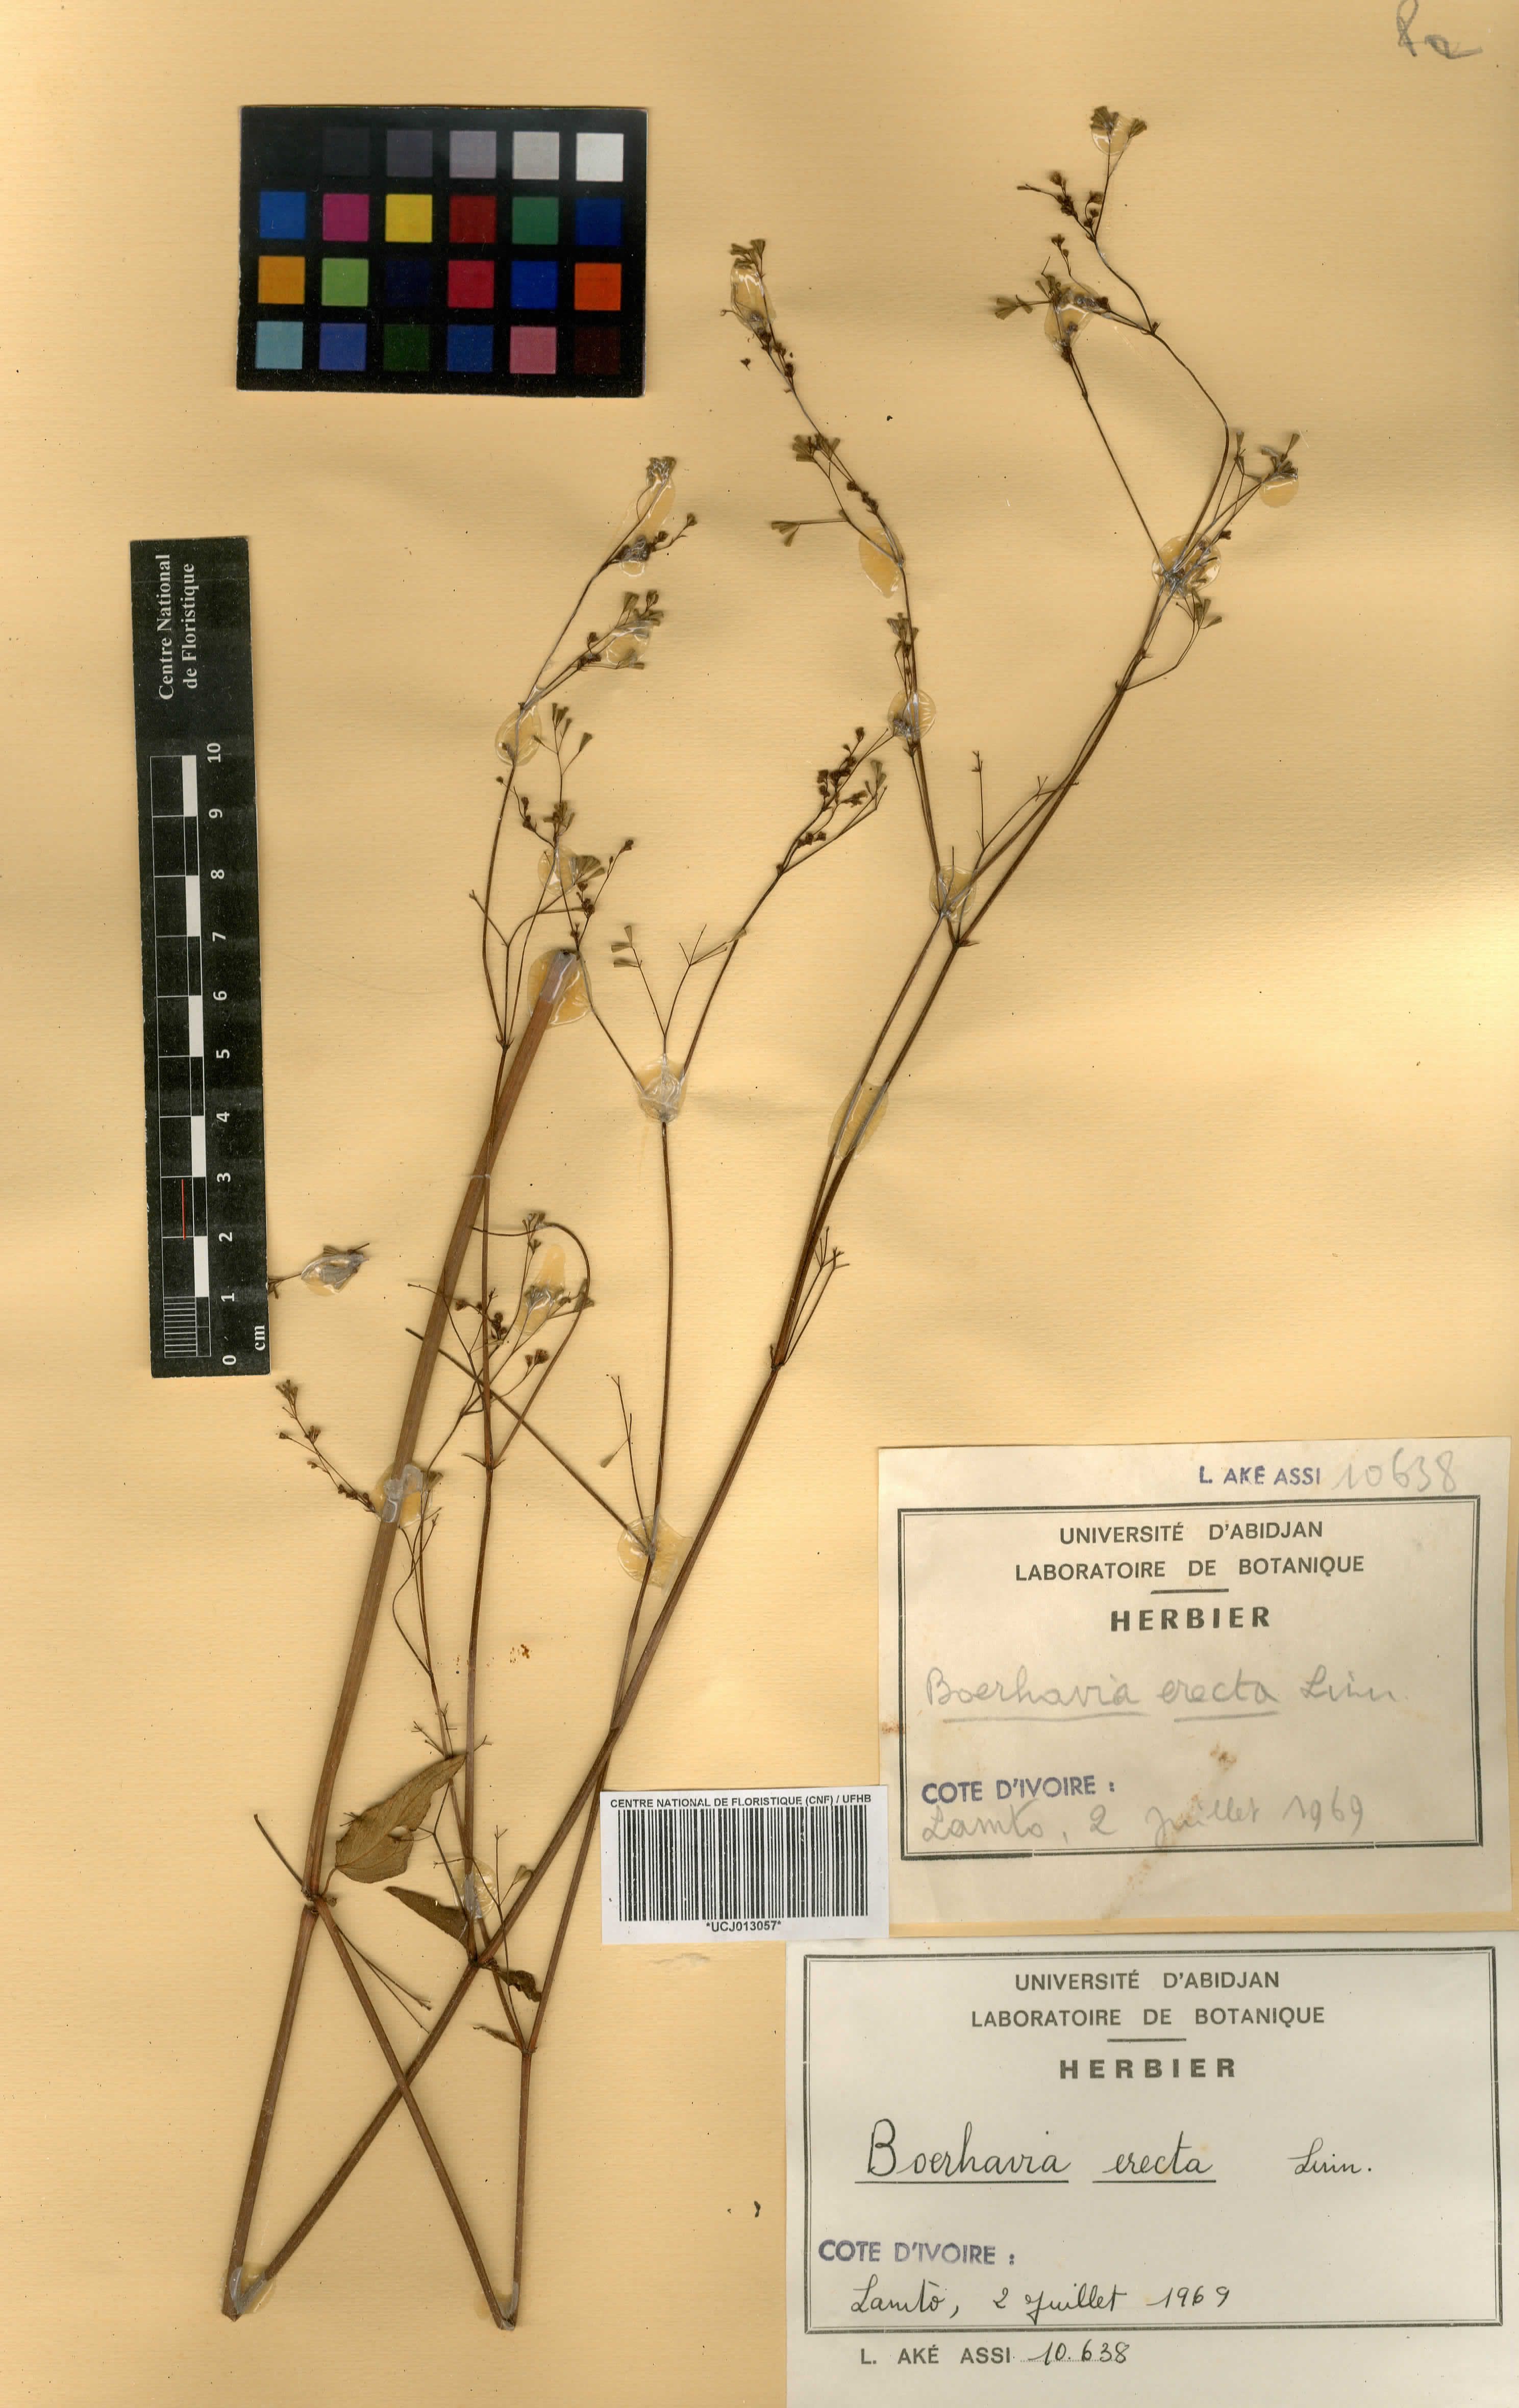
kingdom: Plantae
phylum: Tracheophyta
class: Magnoliopsida
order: Caryophyllales
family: Nyctaginaceae
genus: Boerhavia
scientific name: Boerhavia erecta
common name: Erect spiderling
